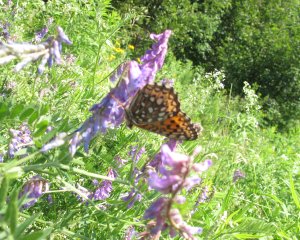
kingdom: Animalia
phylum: Arthropoda
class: Insecta
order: Lepidoptera
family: Nymphalidae
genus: Speyeria
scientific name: Speyeria atlantis
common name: Atlantis Fritillary
